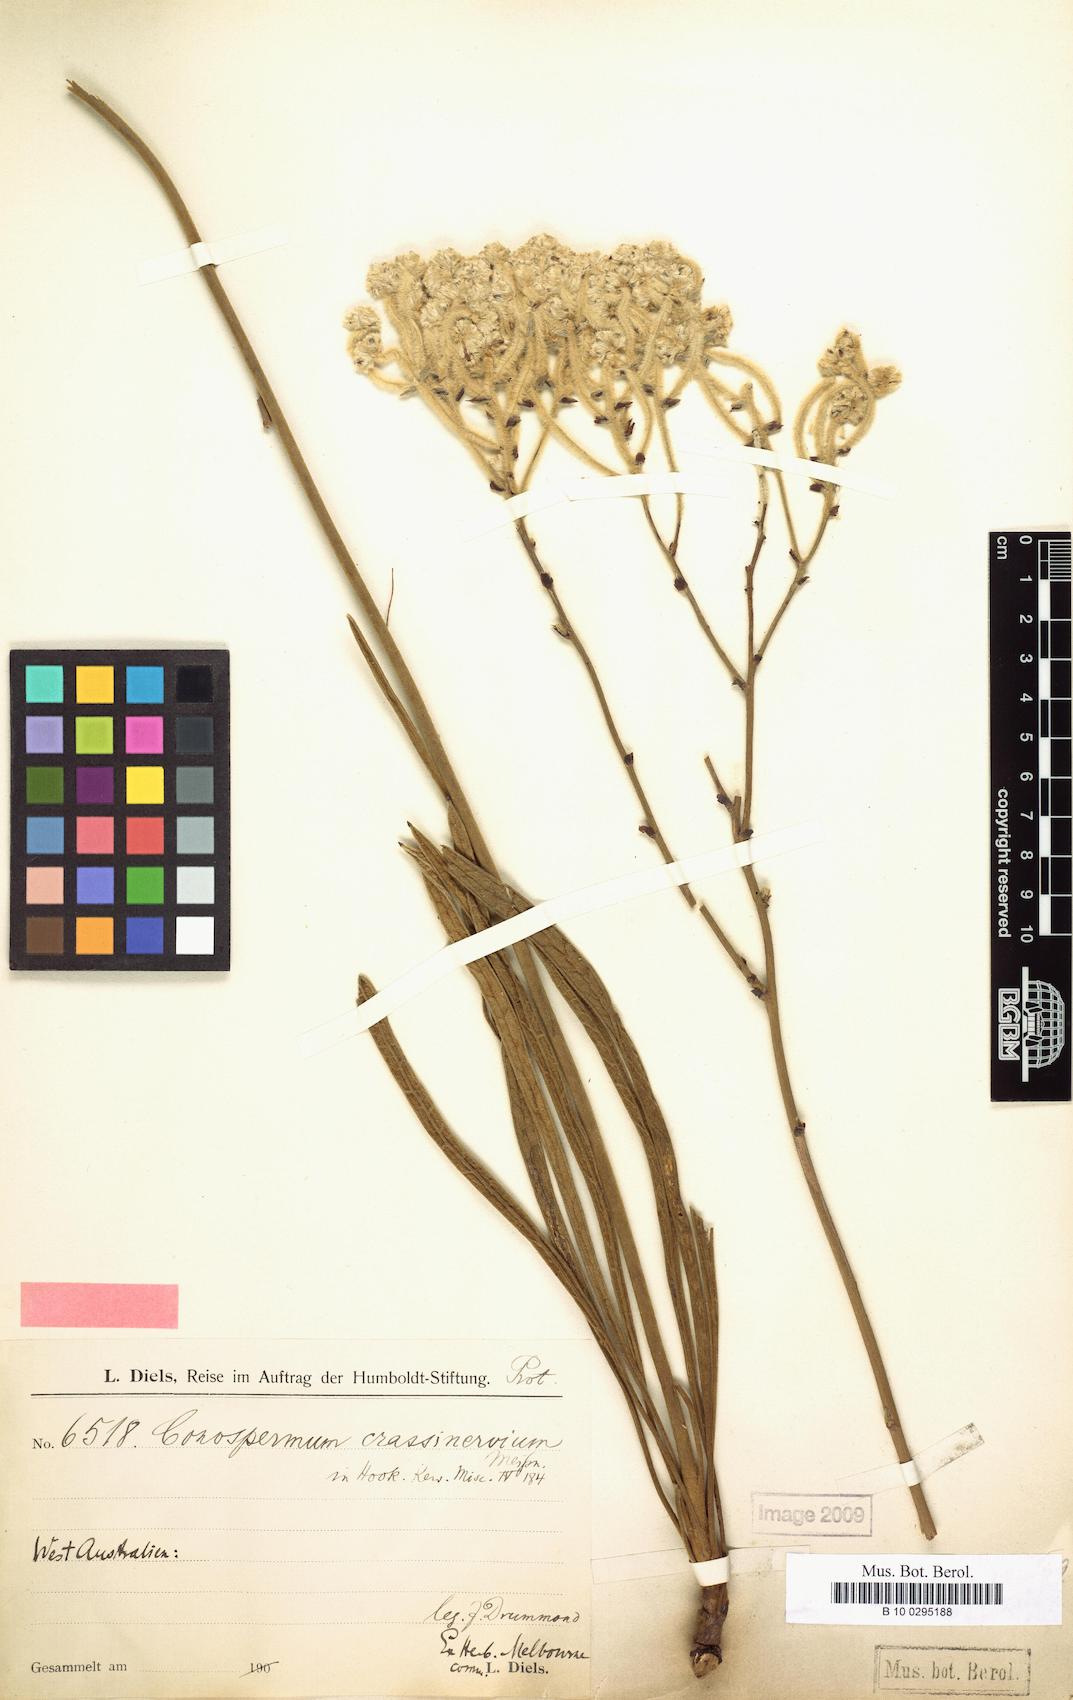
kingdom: Plantae
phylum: Tracheophyta
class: Magnoliopsida
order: Proteales
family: Proteaceae
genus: Conospermum
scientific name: Conospermum crassinervium
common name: Tassel smokebush
